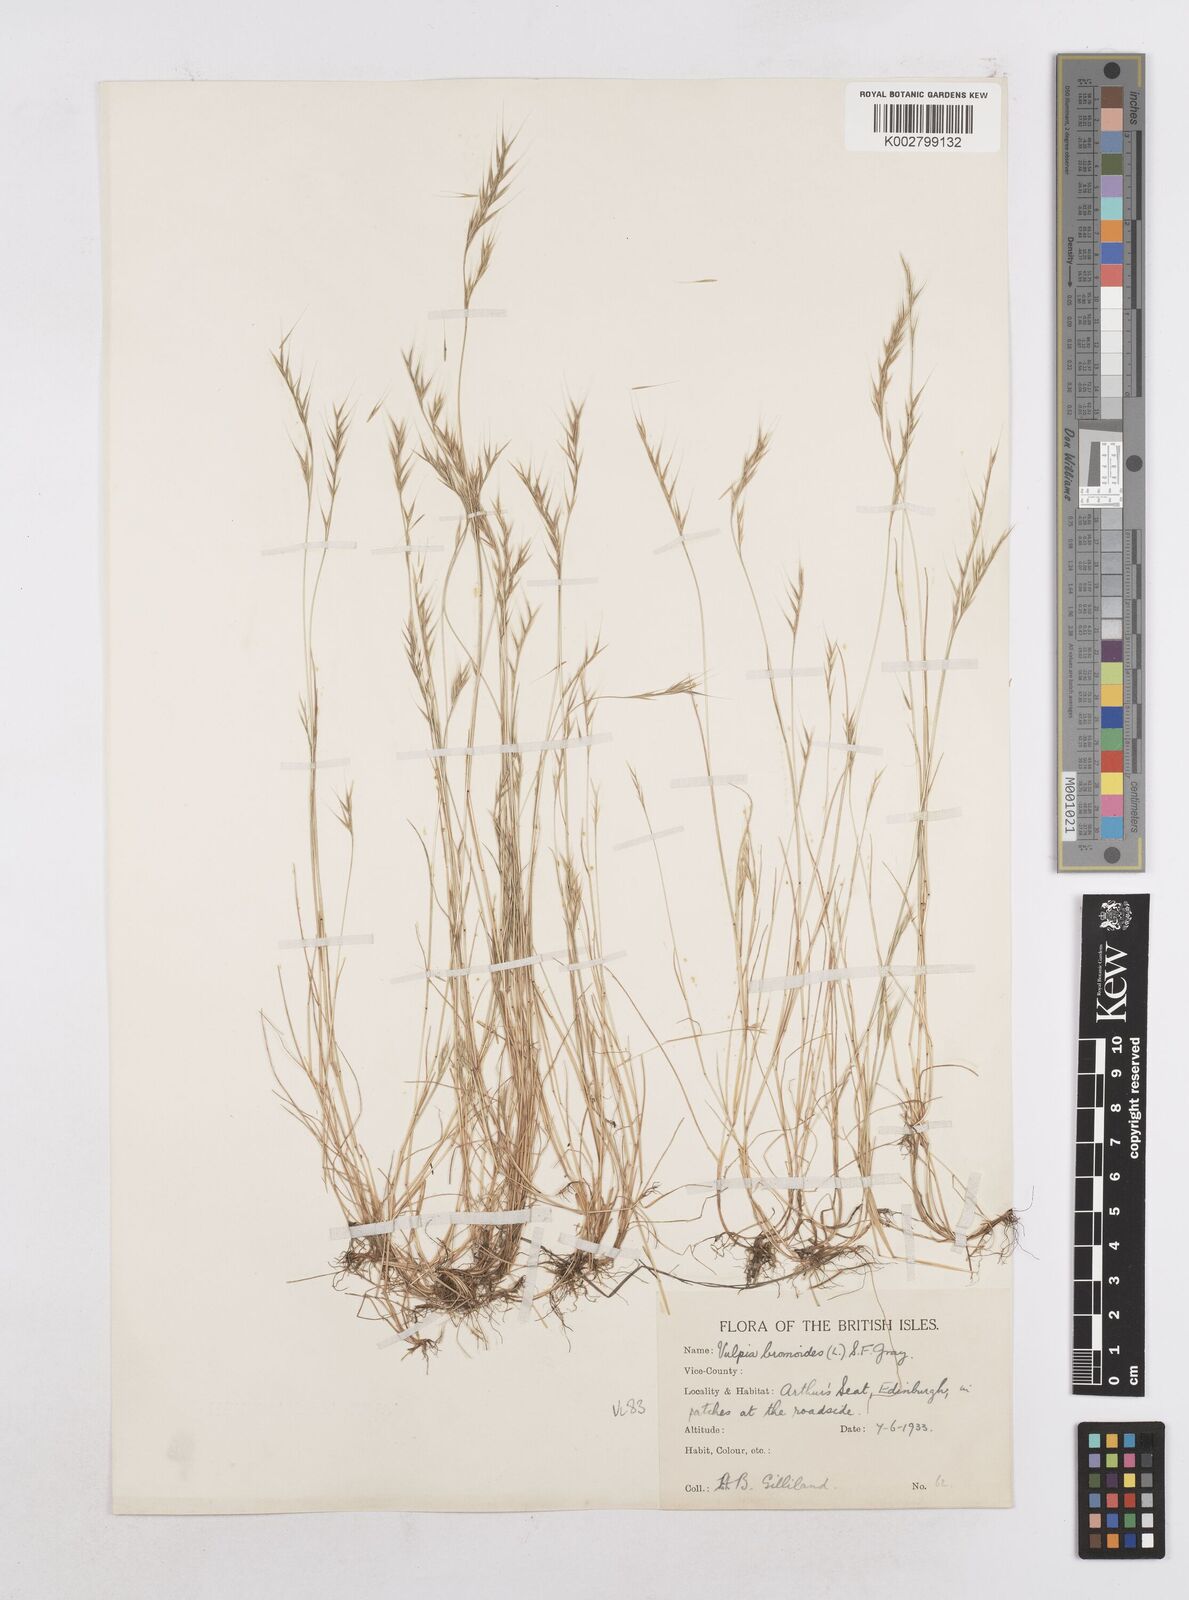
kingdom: Plantae
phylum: Tracheophyta
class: Liliopsida
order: Poales
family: Poaceae
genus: Festuca
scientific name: Festuca bromoides
